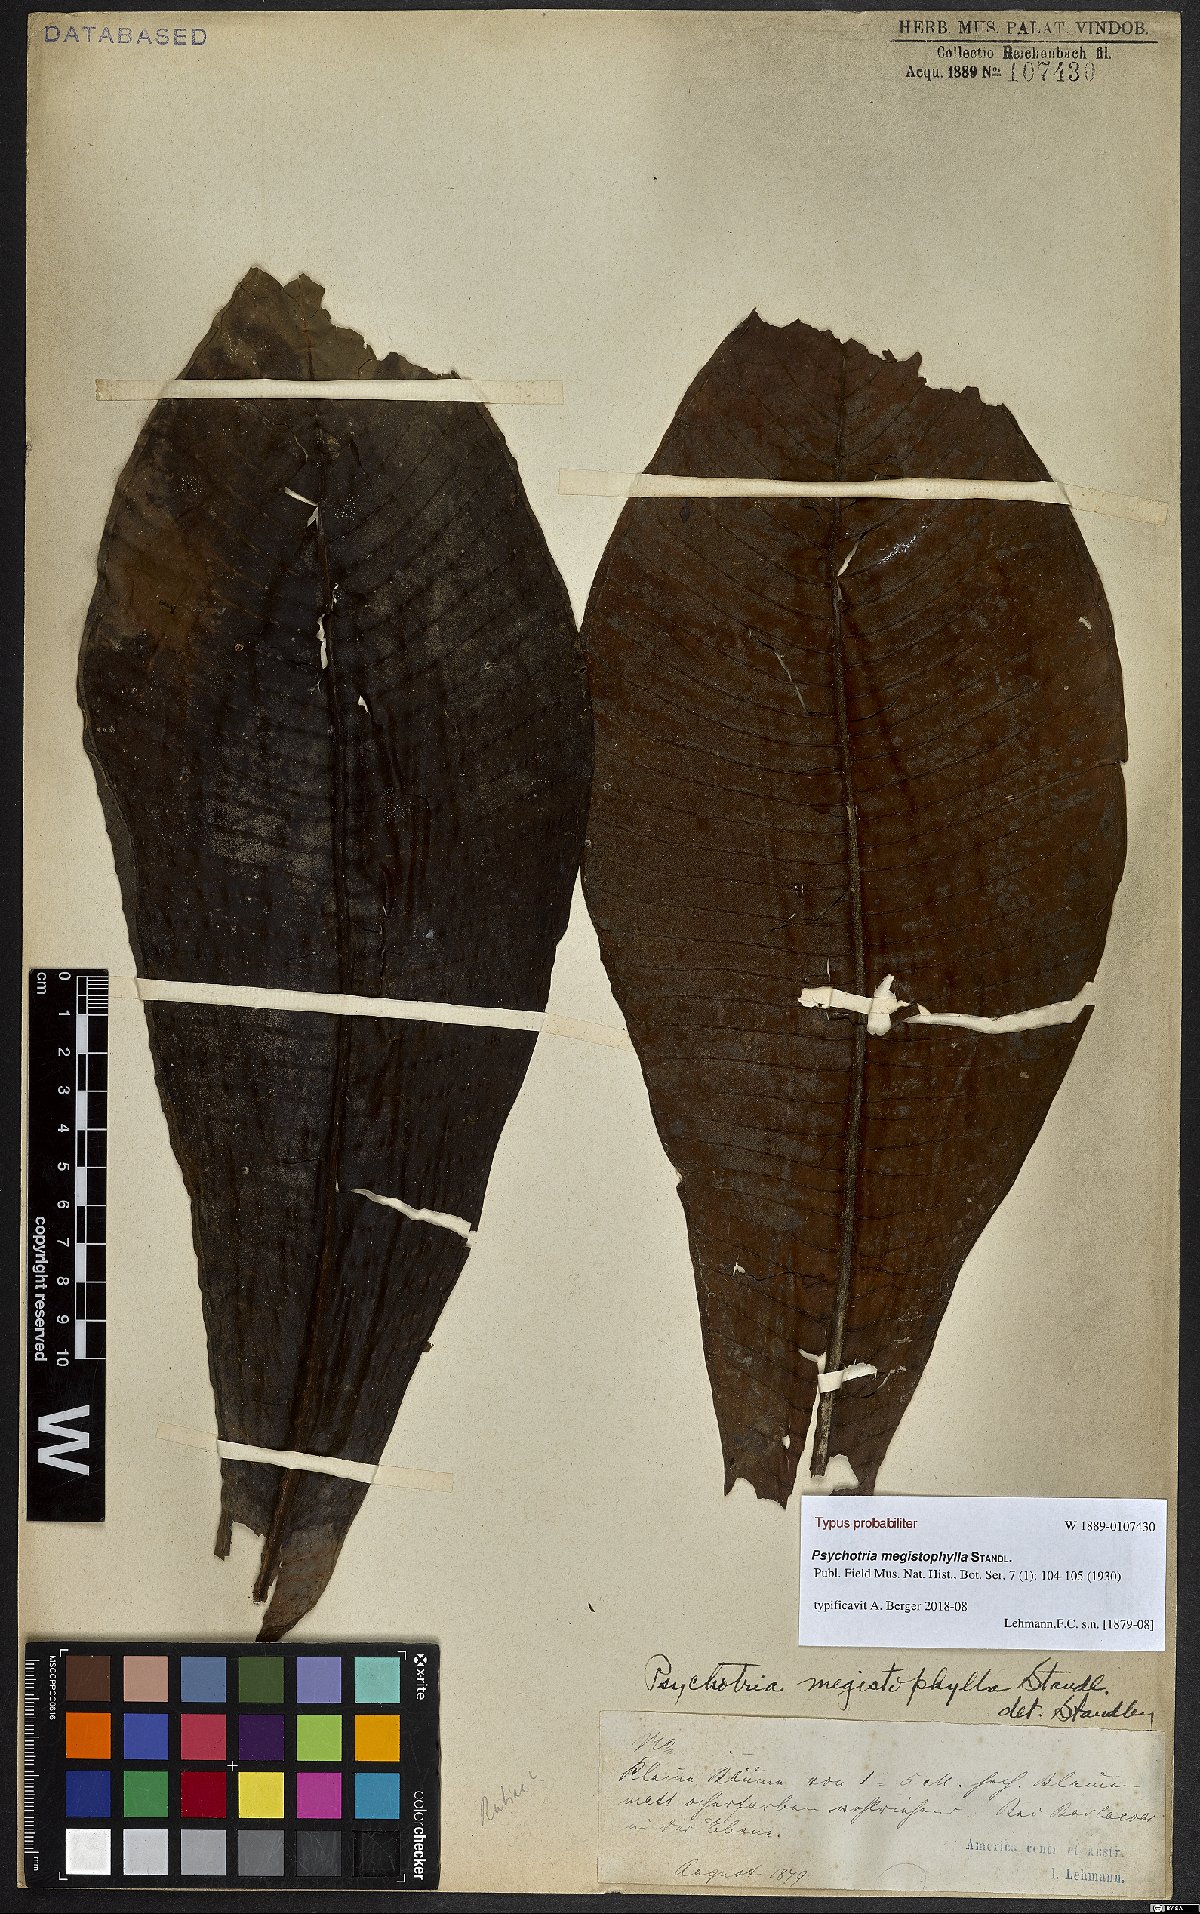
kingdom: Plantae
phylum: Tracheophyta
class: Magnoliopsida
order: Gentianales
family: Rubiaceae
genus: Psychotria
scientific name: Psychotria megistophylla
